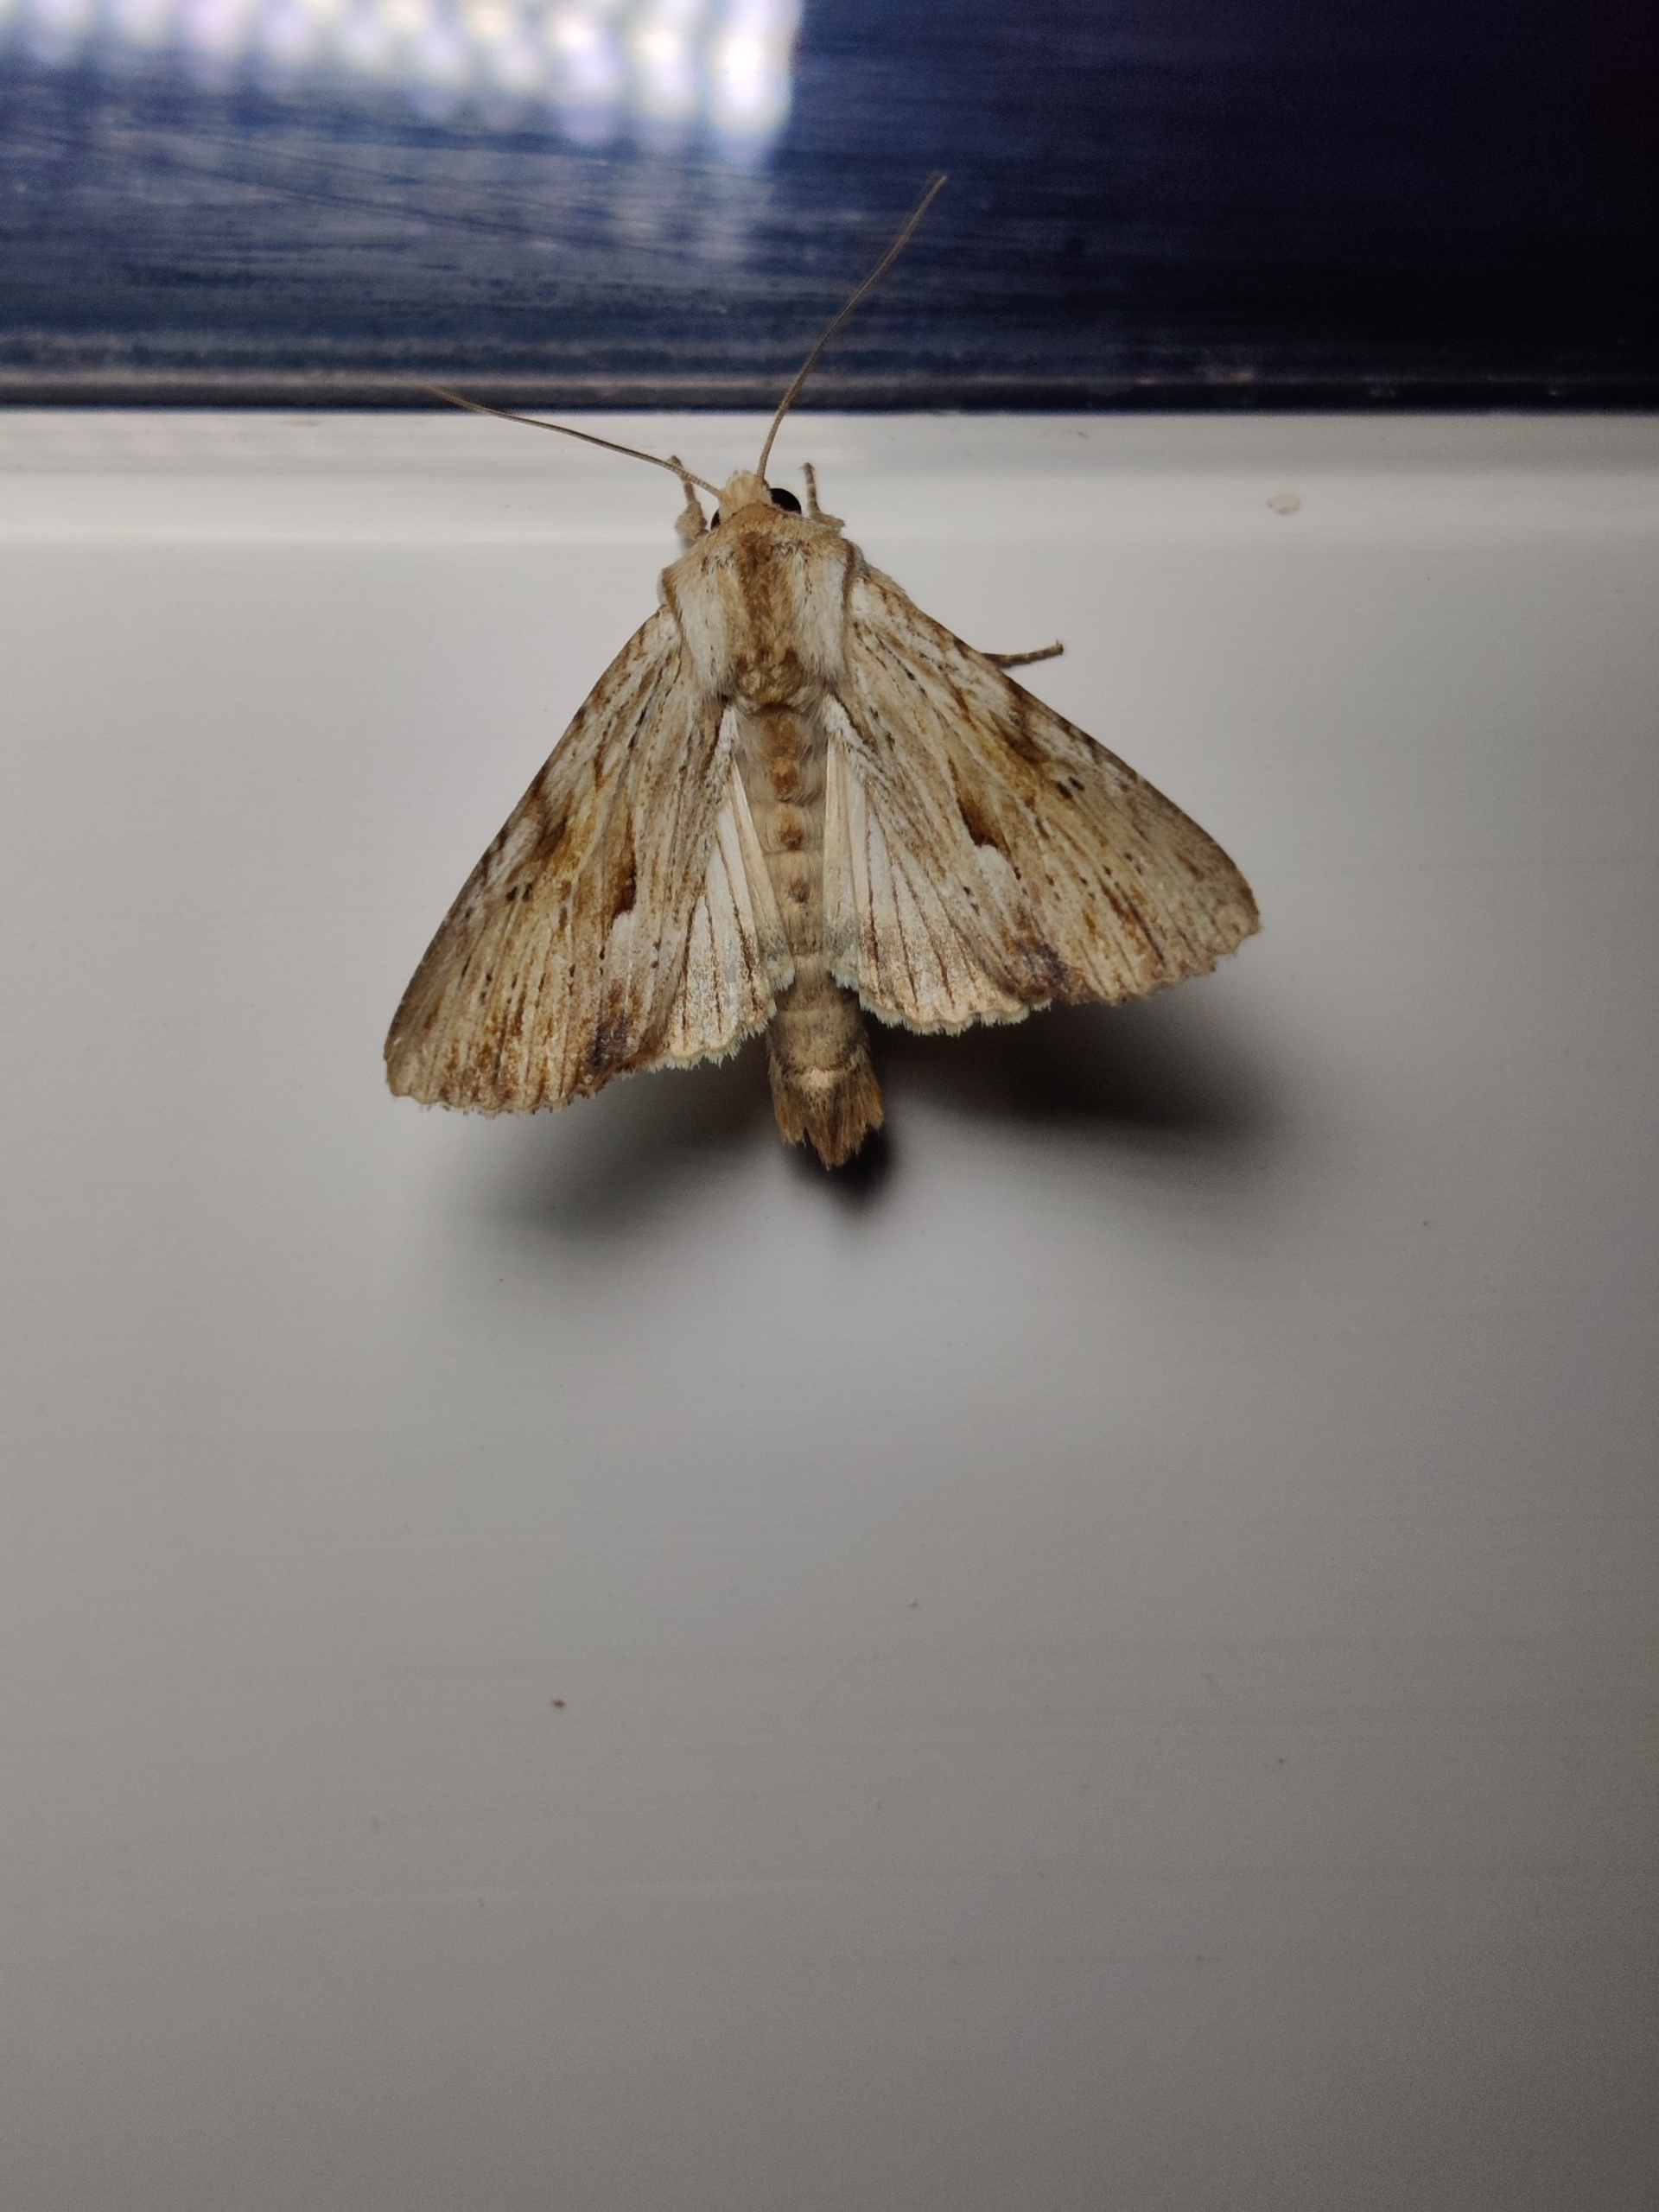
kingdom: Animalia
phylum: Arthropoda
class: Insecta
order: Lepidoptera
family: Noctuidae
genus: Apamea
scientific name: Apamea lithoxylaea
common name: Hvidlig stængelugle
